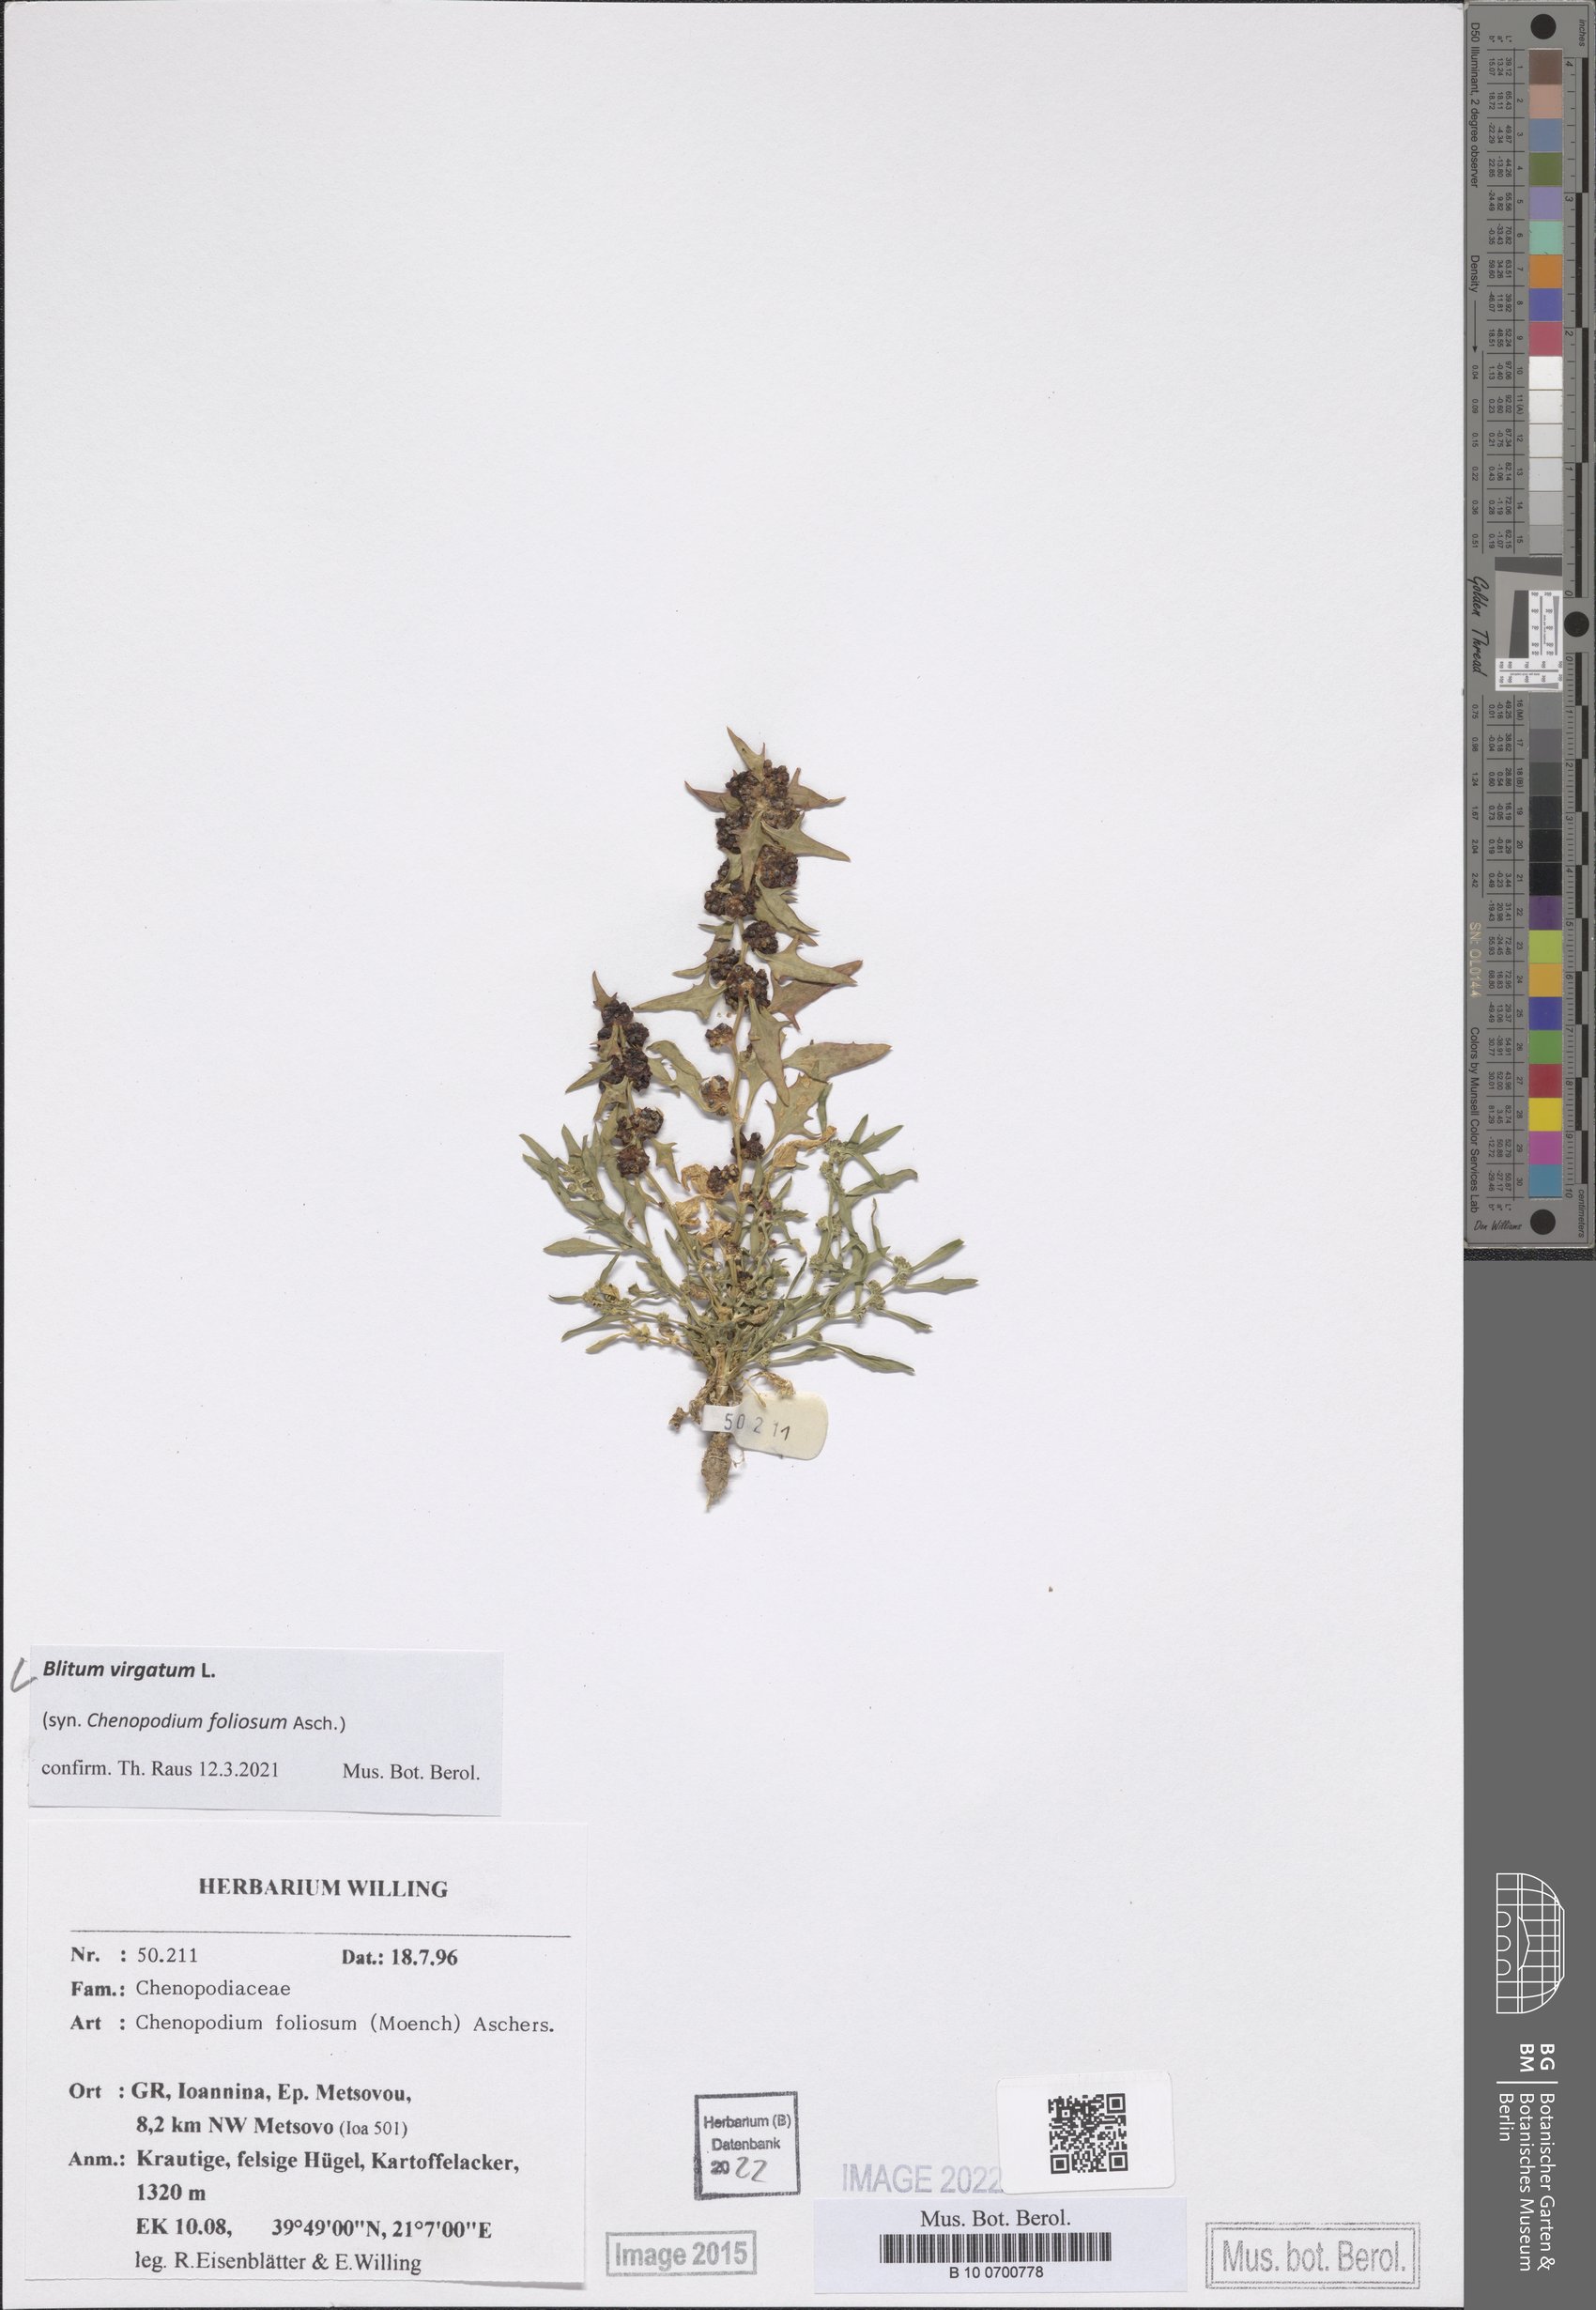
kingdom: Plantae
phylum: Tracheophyta
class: Magnoliopsida
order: Caryophyllales
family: Amaranthaceae
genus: Blitum
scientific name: Blitum virgatum
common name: Strawberry goosefoot
